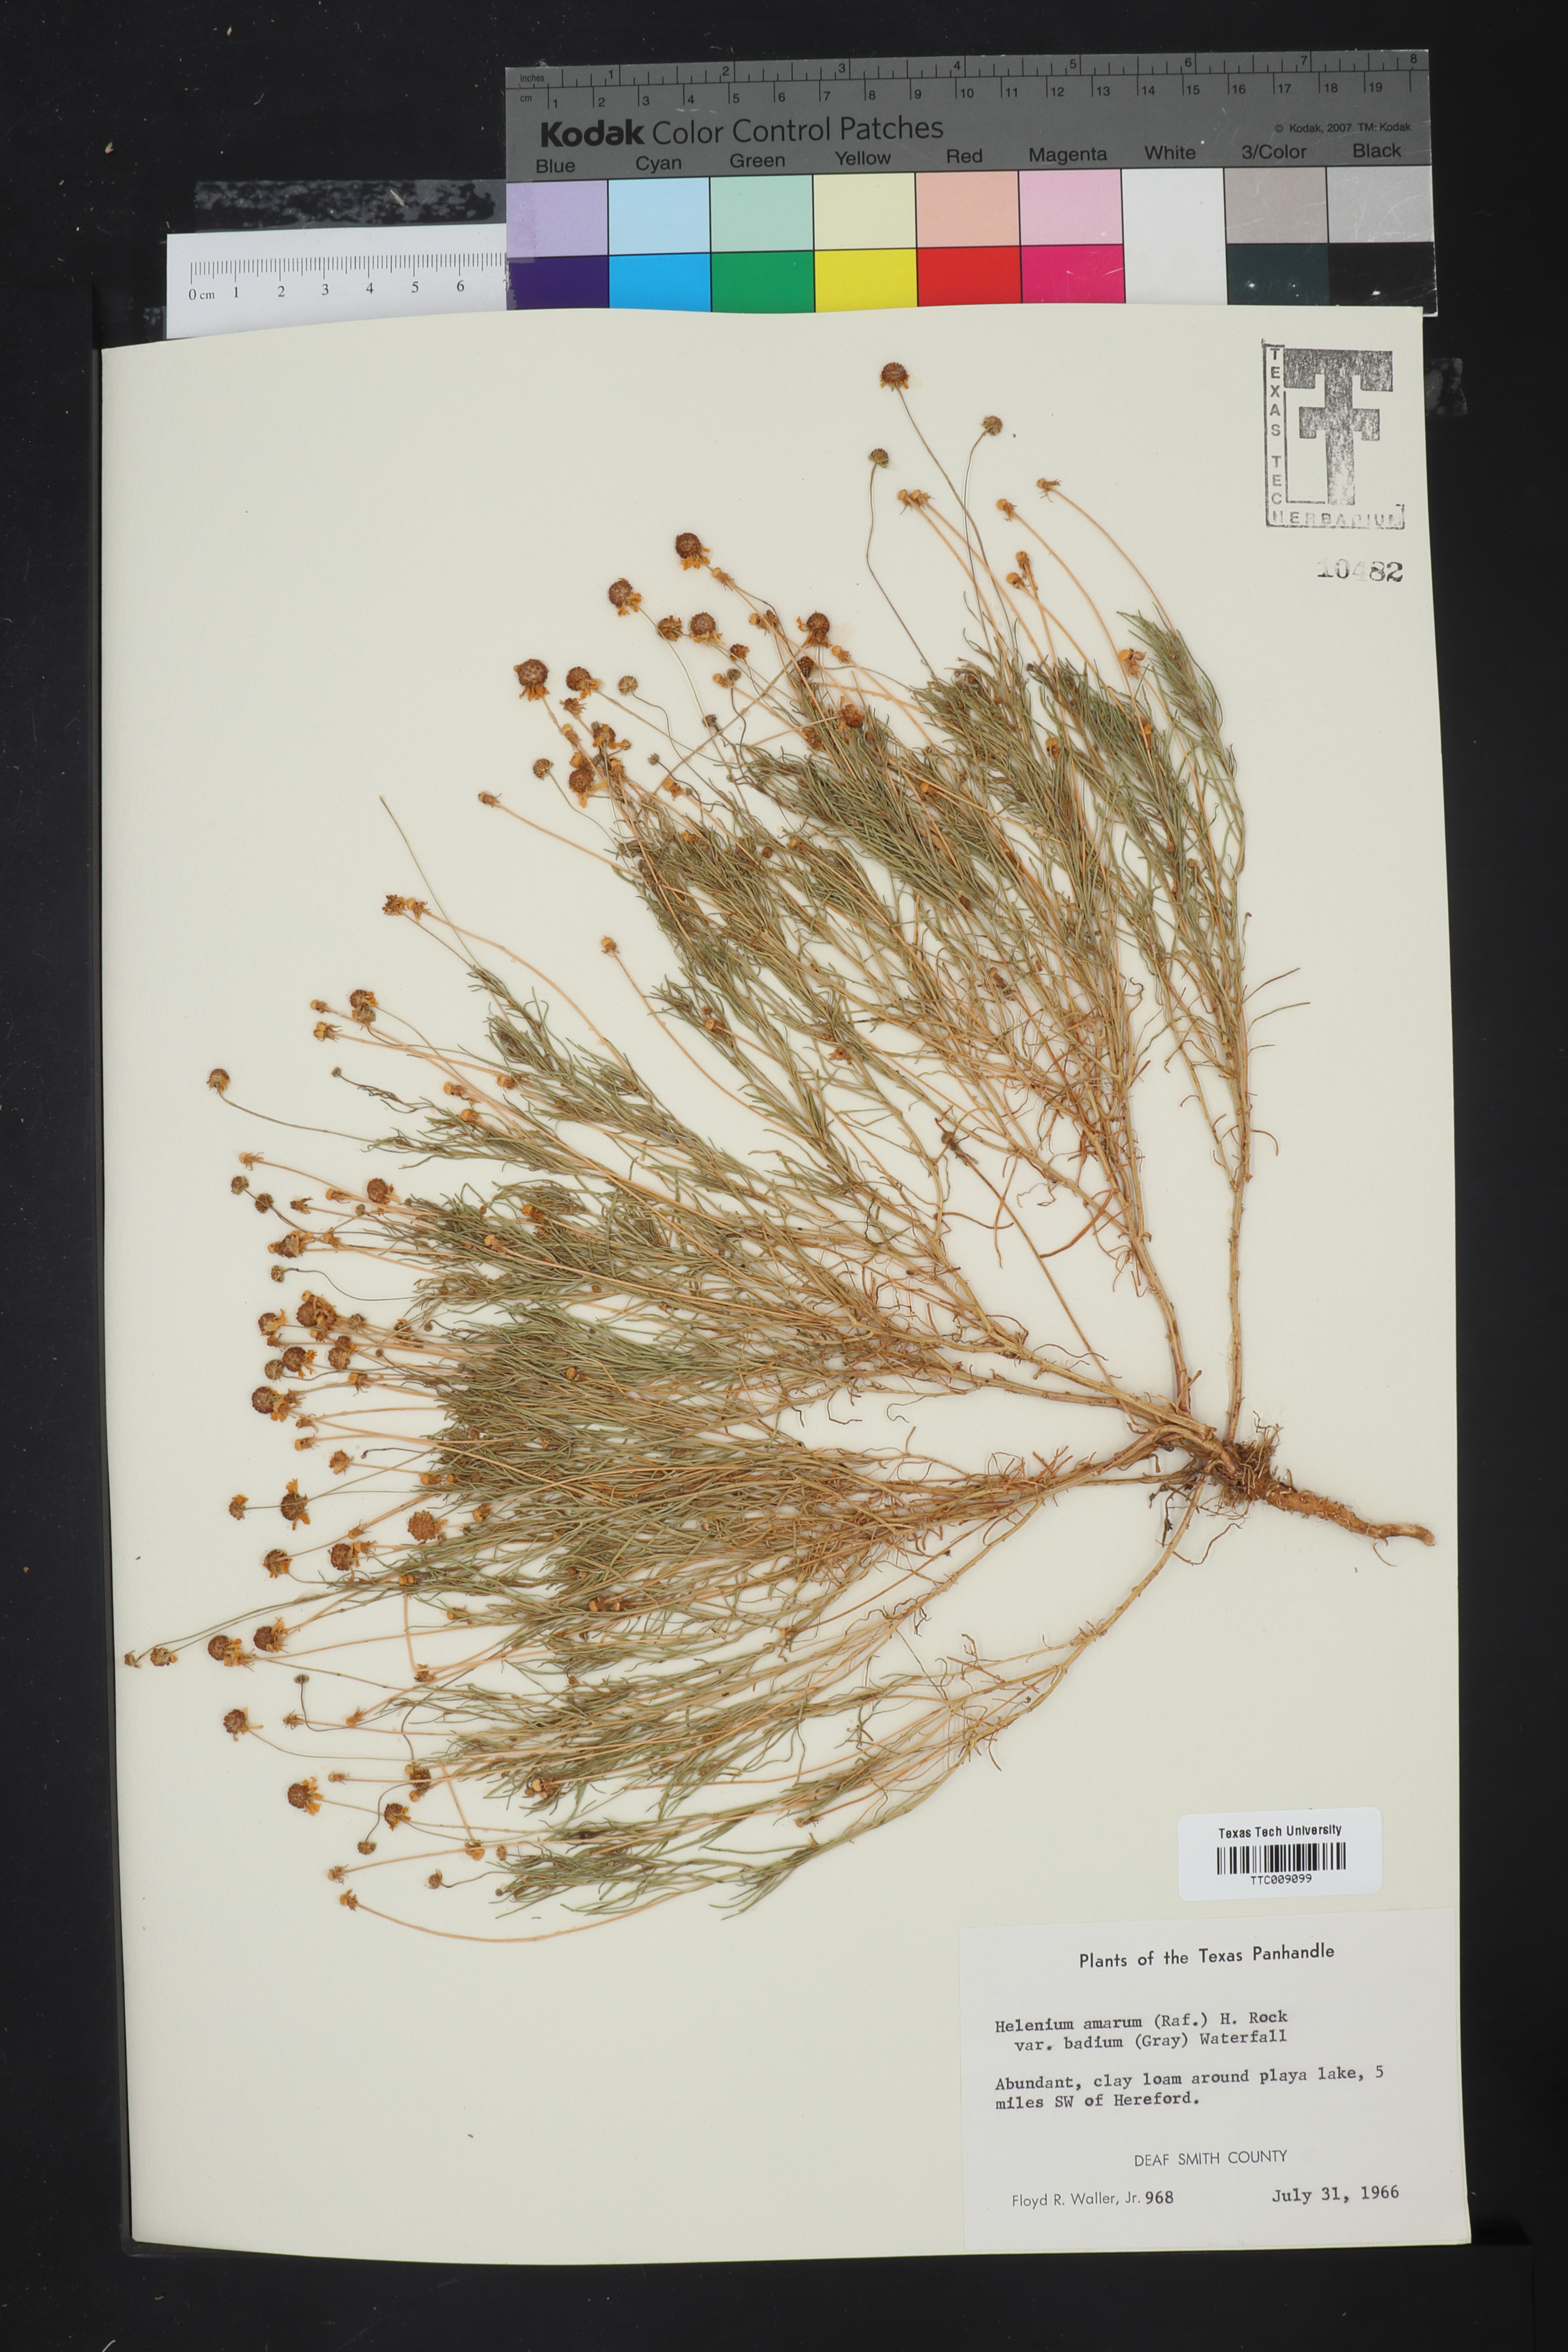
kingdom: Plantae
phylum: Tracheophyta
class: Magnoliopsida
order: Asterales
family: Asteraceae
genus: Helenium
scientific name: Helenium amarum
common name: Bitter sneezeweed
